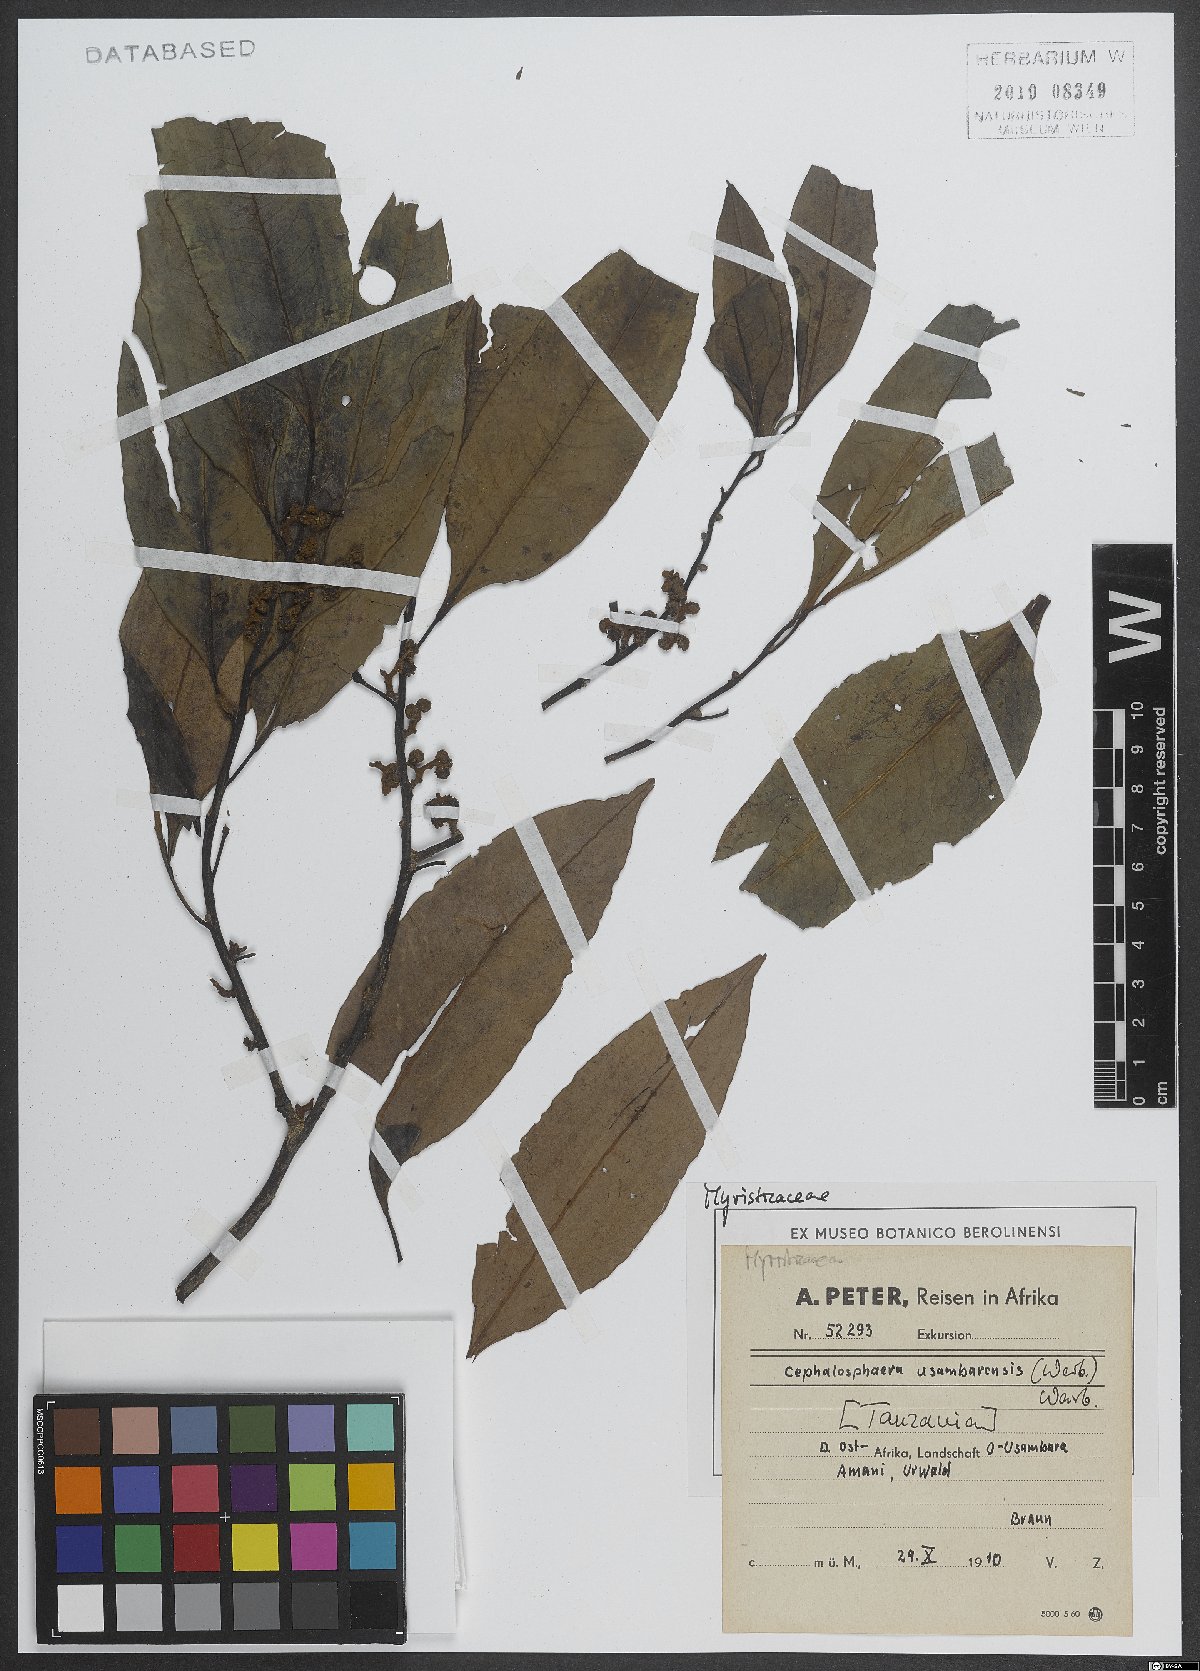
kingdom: Plantae
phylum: Tracheophyta
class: Magnoliopsida
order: Magnoliales
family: Myristicaceae
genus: Brochoneura
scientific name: Brochoneura usambarensis
